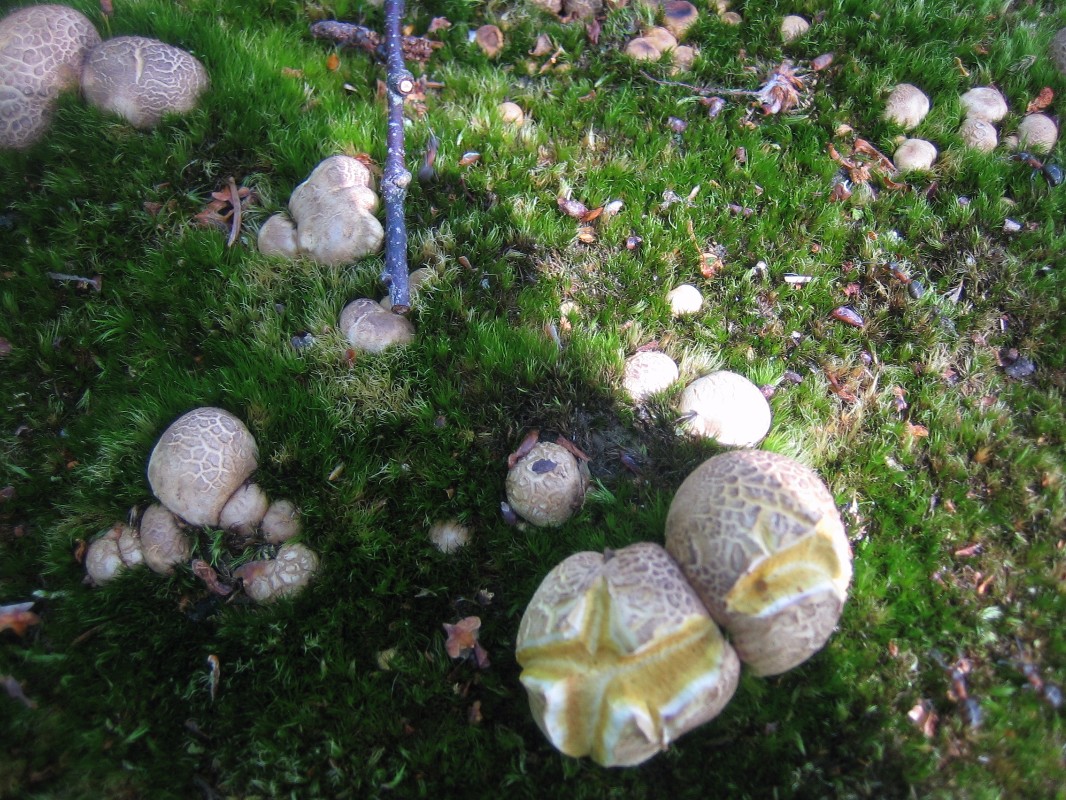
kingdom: Fungi
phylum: Basidiomycota
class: Agaricomycetes
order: Boletales
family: Sclerodermataceae
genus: Scleroderma
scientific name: Scleroderma citrinum
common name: almindelig bruskbold
